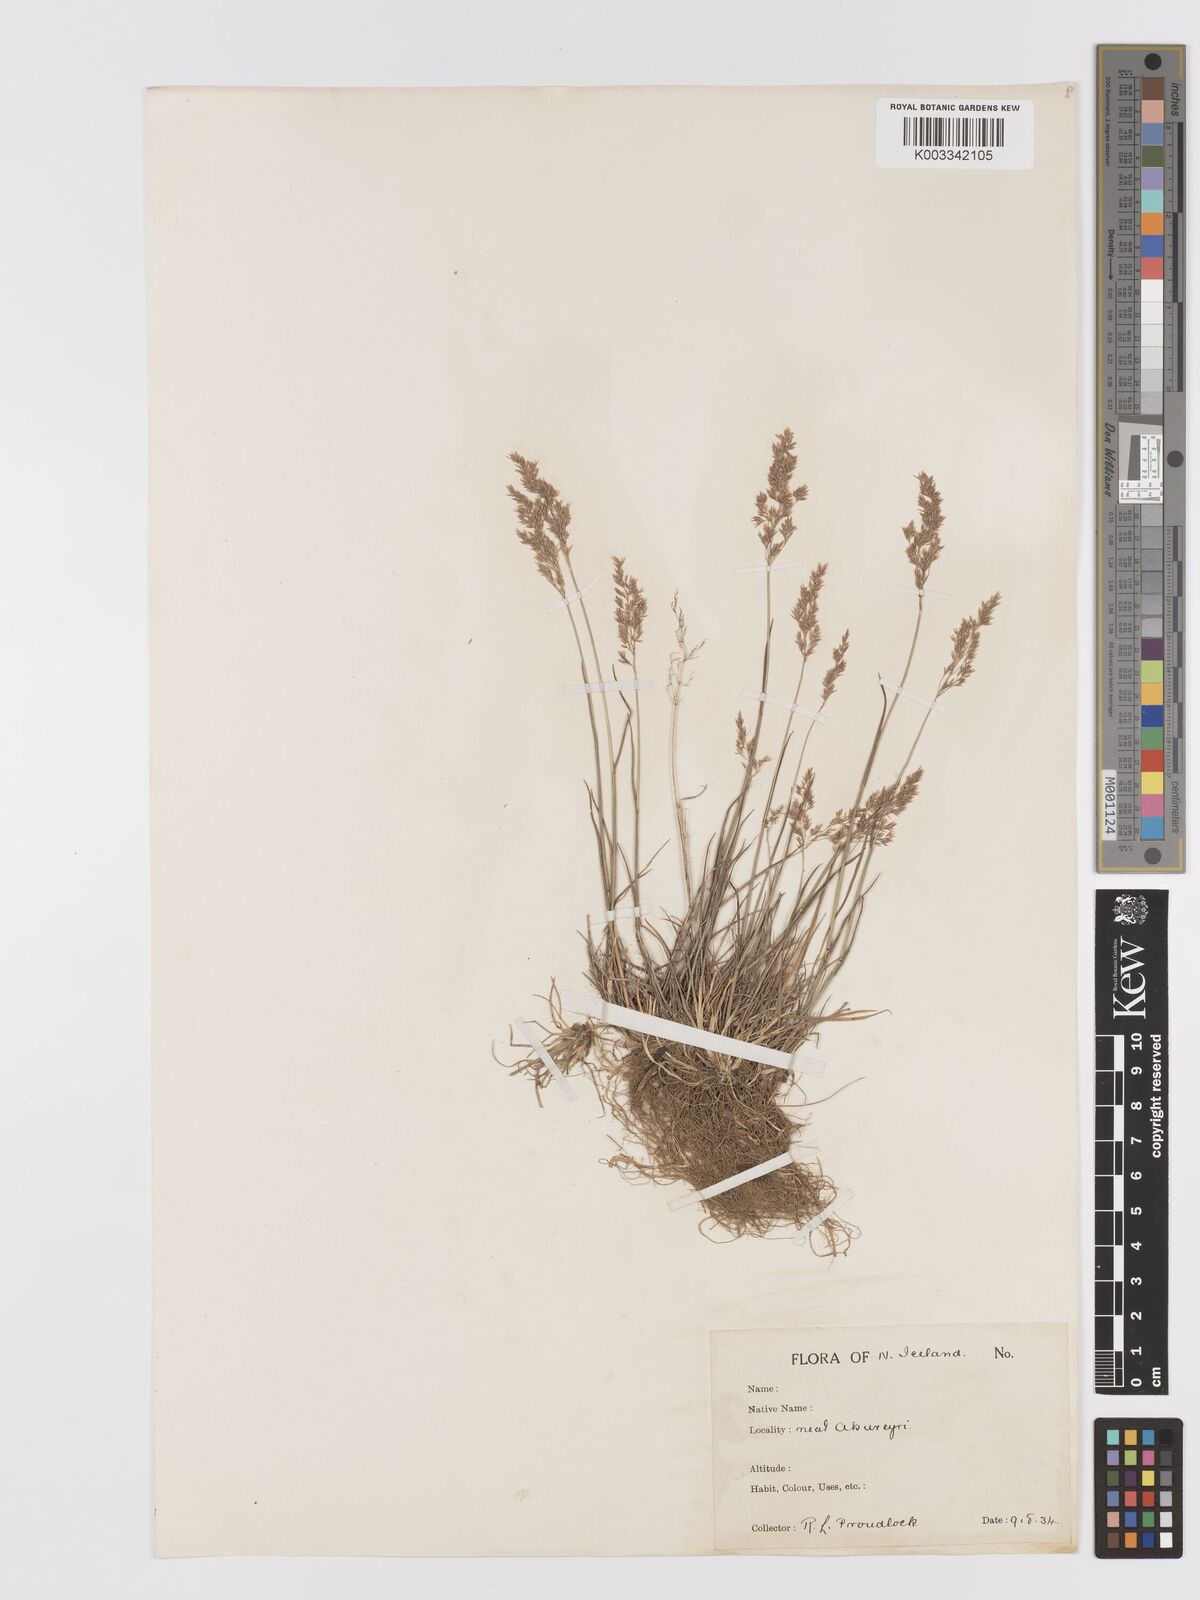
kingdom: Plantae
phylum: Tracheophyta
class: Liliopsida
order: Poales
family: Poaceae
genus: Agrostis
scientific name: Agrostis stolonifera
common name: Creeping bentgrass
